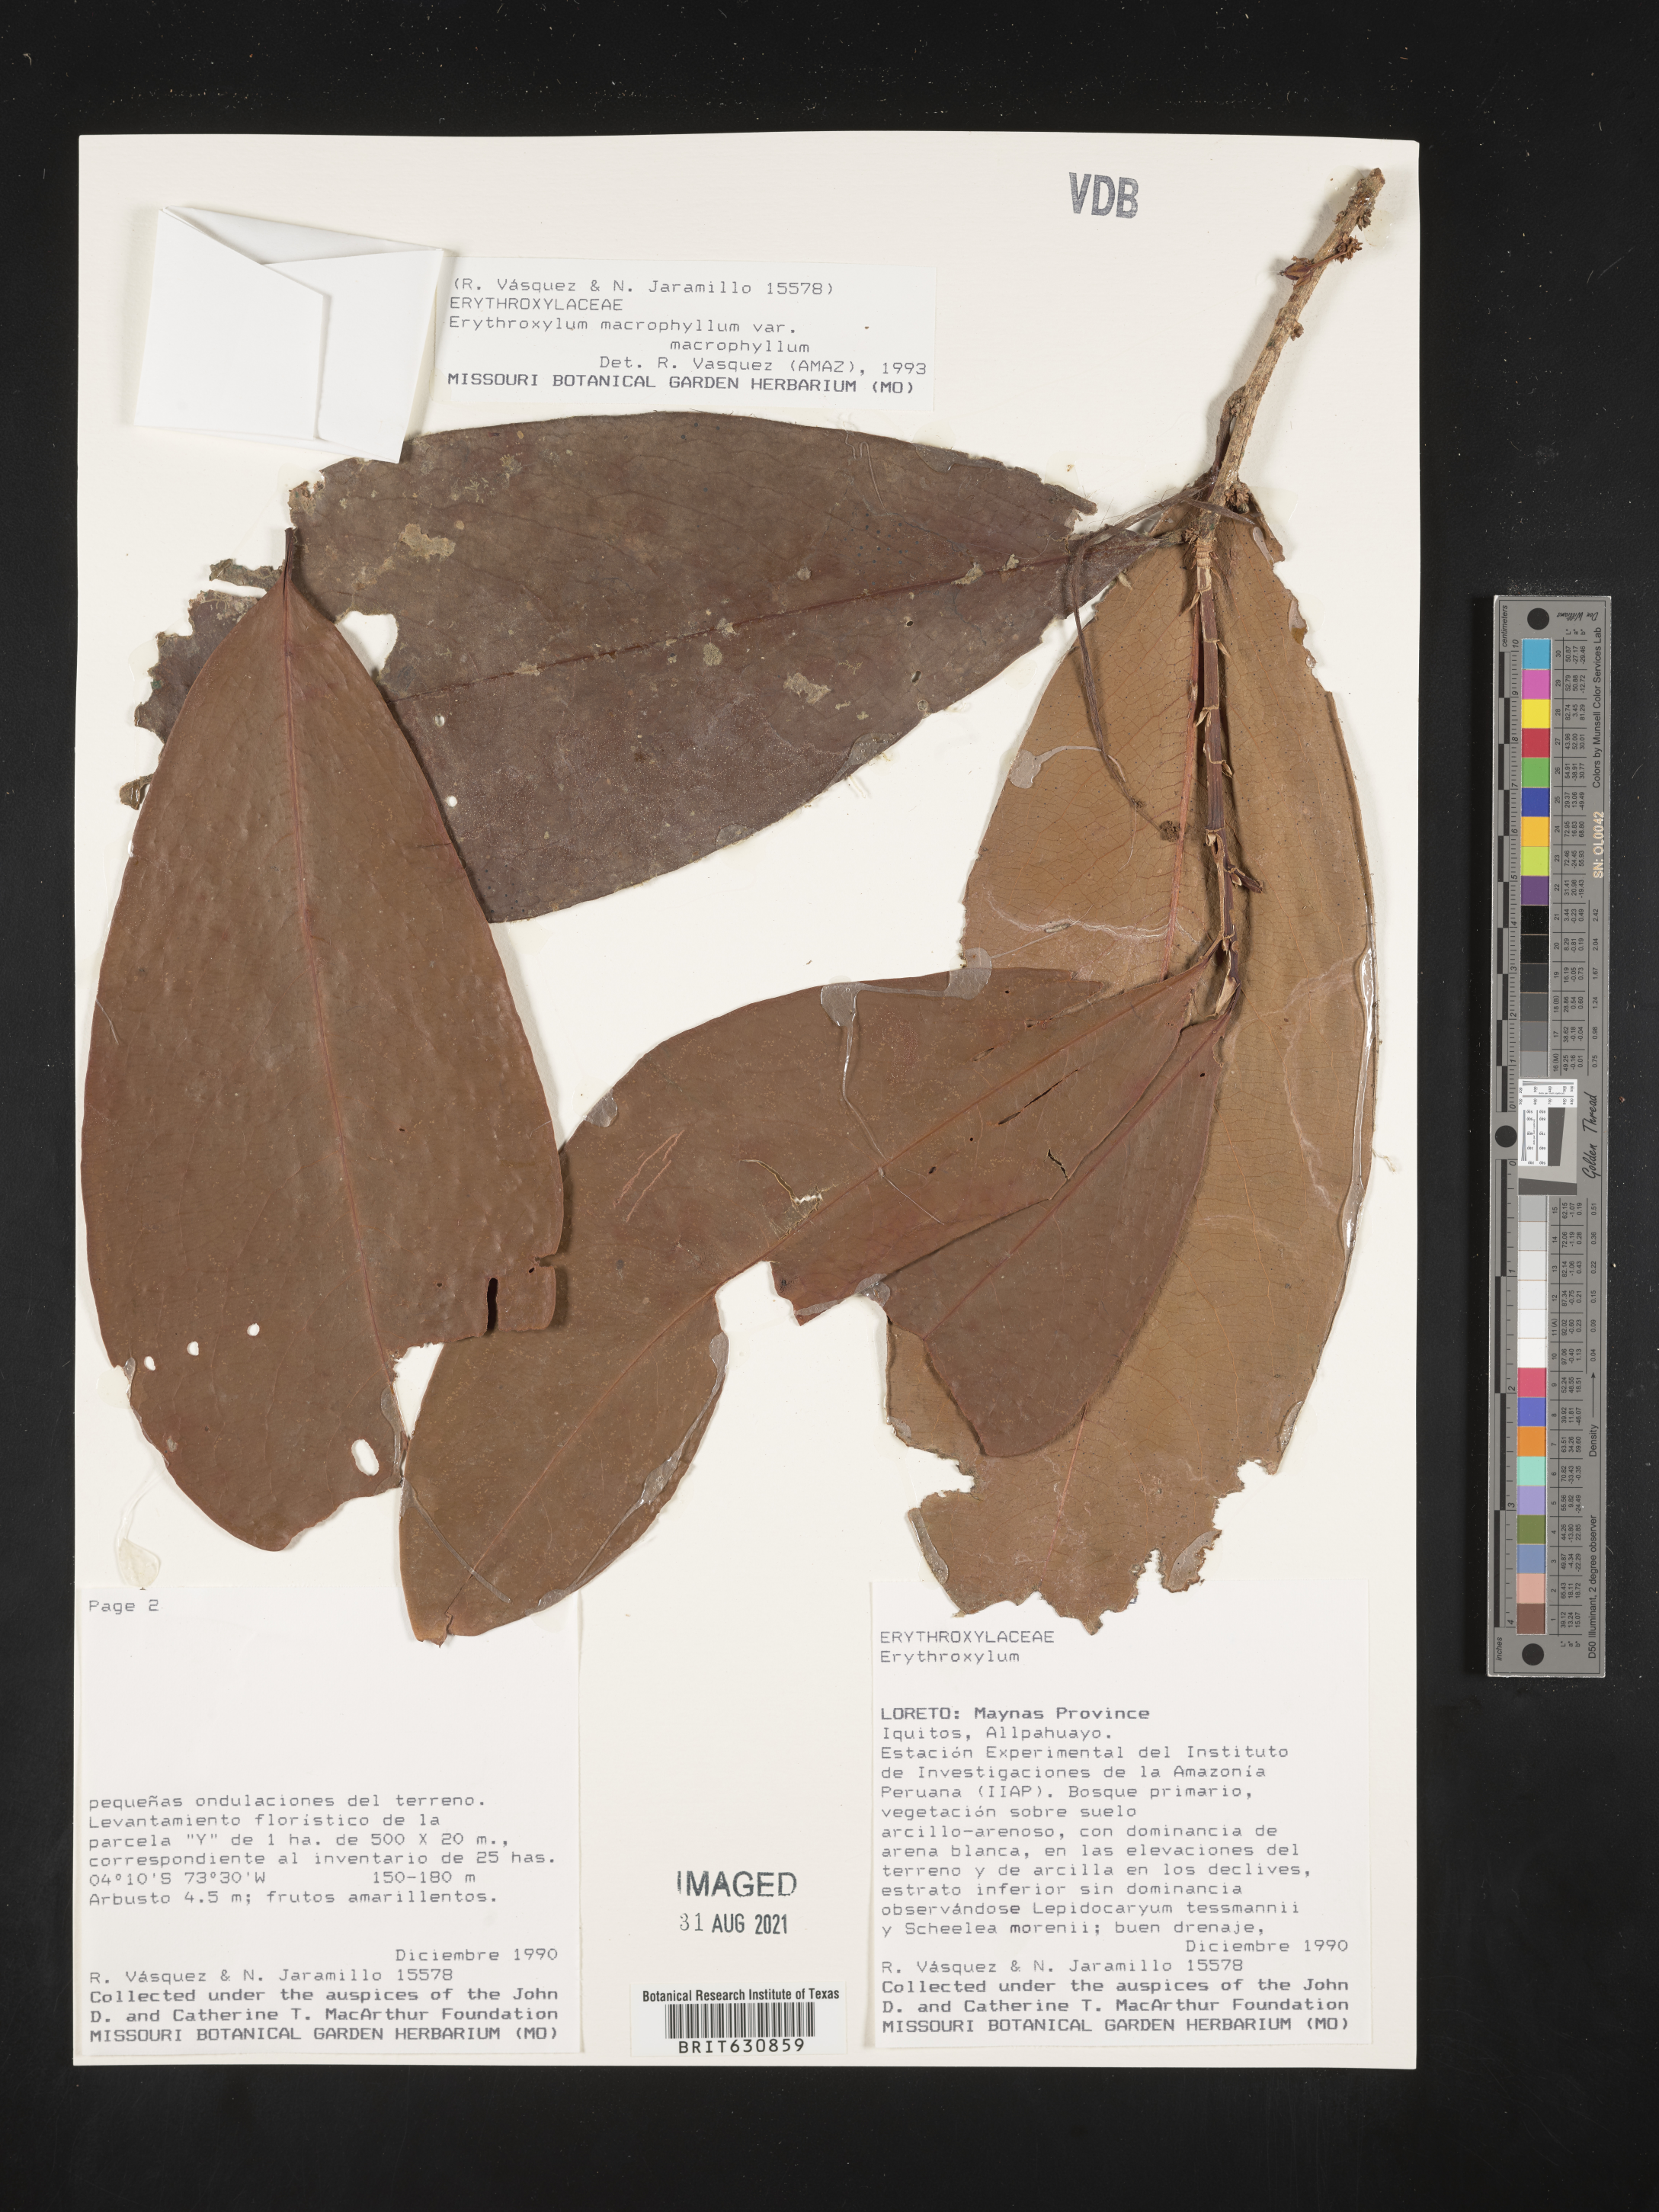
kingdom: Plantae
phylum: Tracheophyta
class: Magnoliopsida
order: Malpighiales
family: Erythroxylaceae
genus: Erythroxylum
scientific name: Erythroxylum
